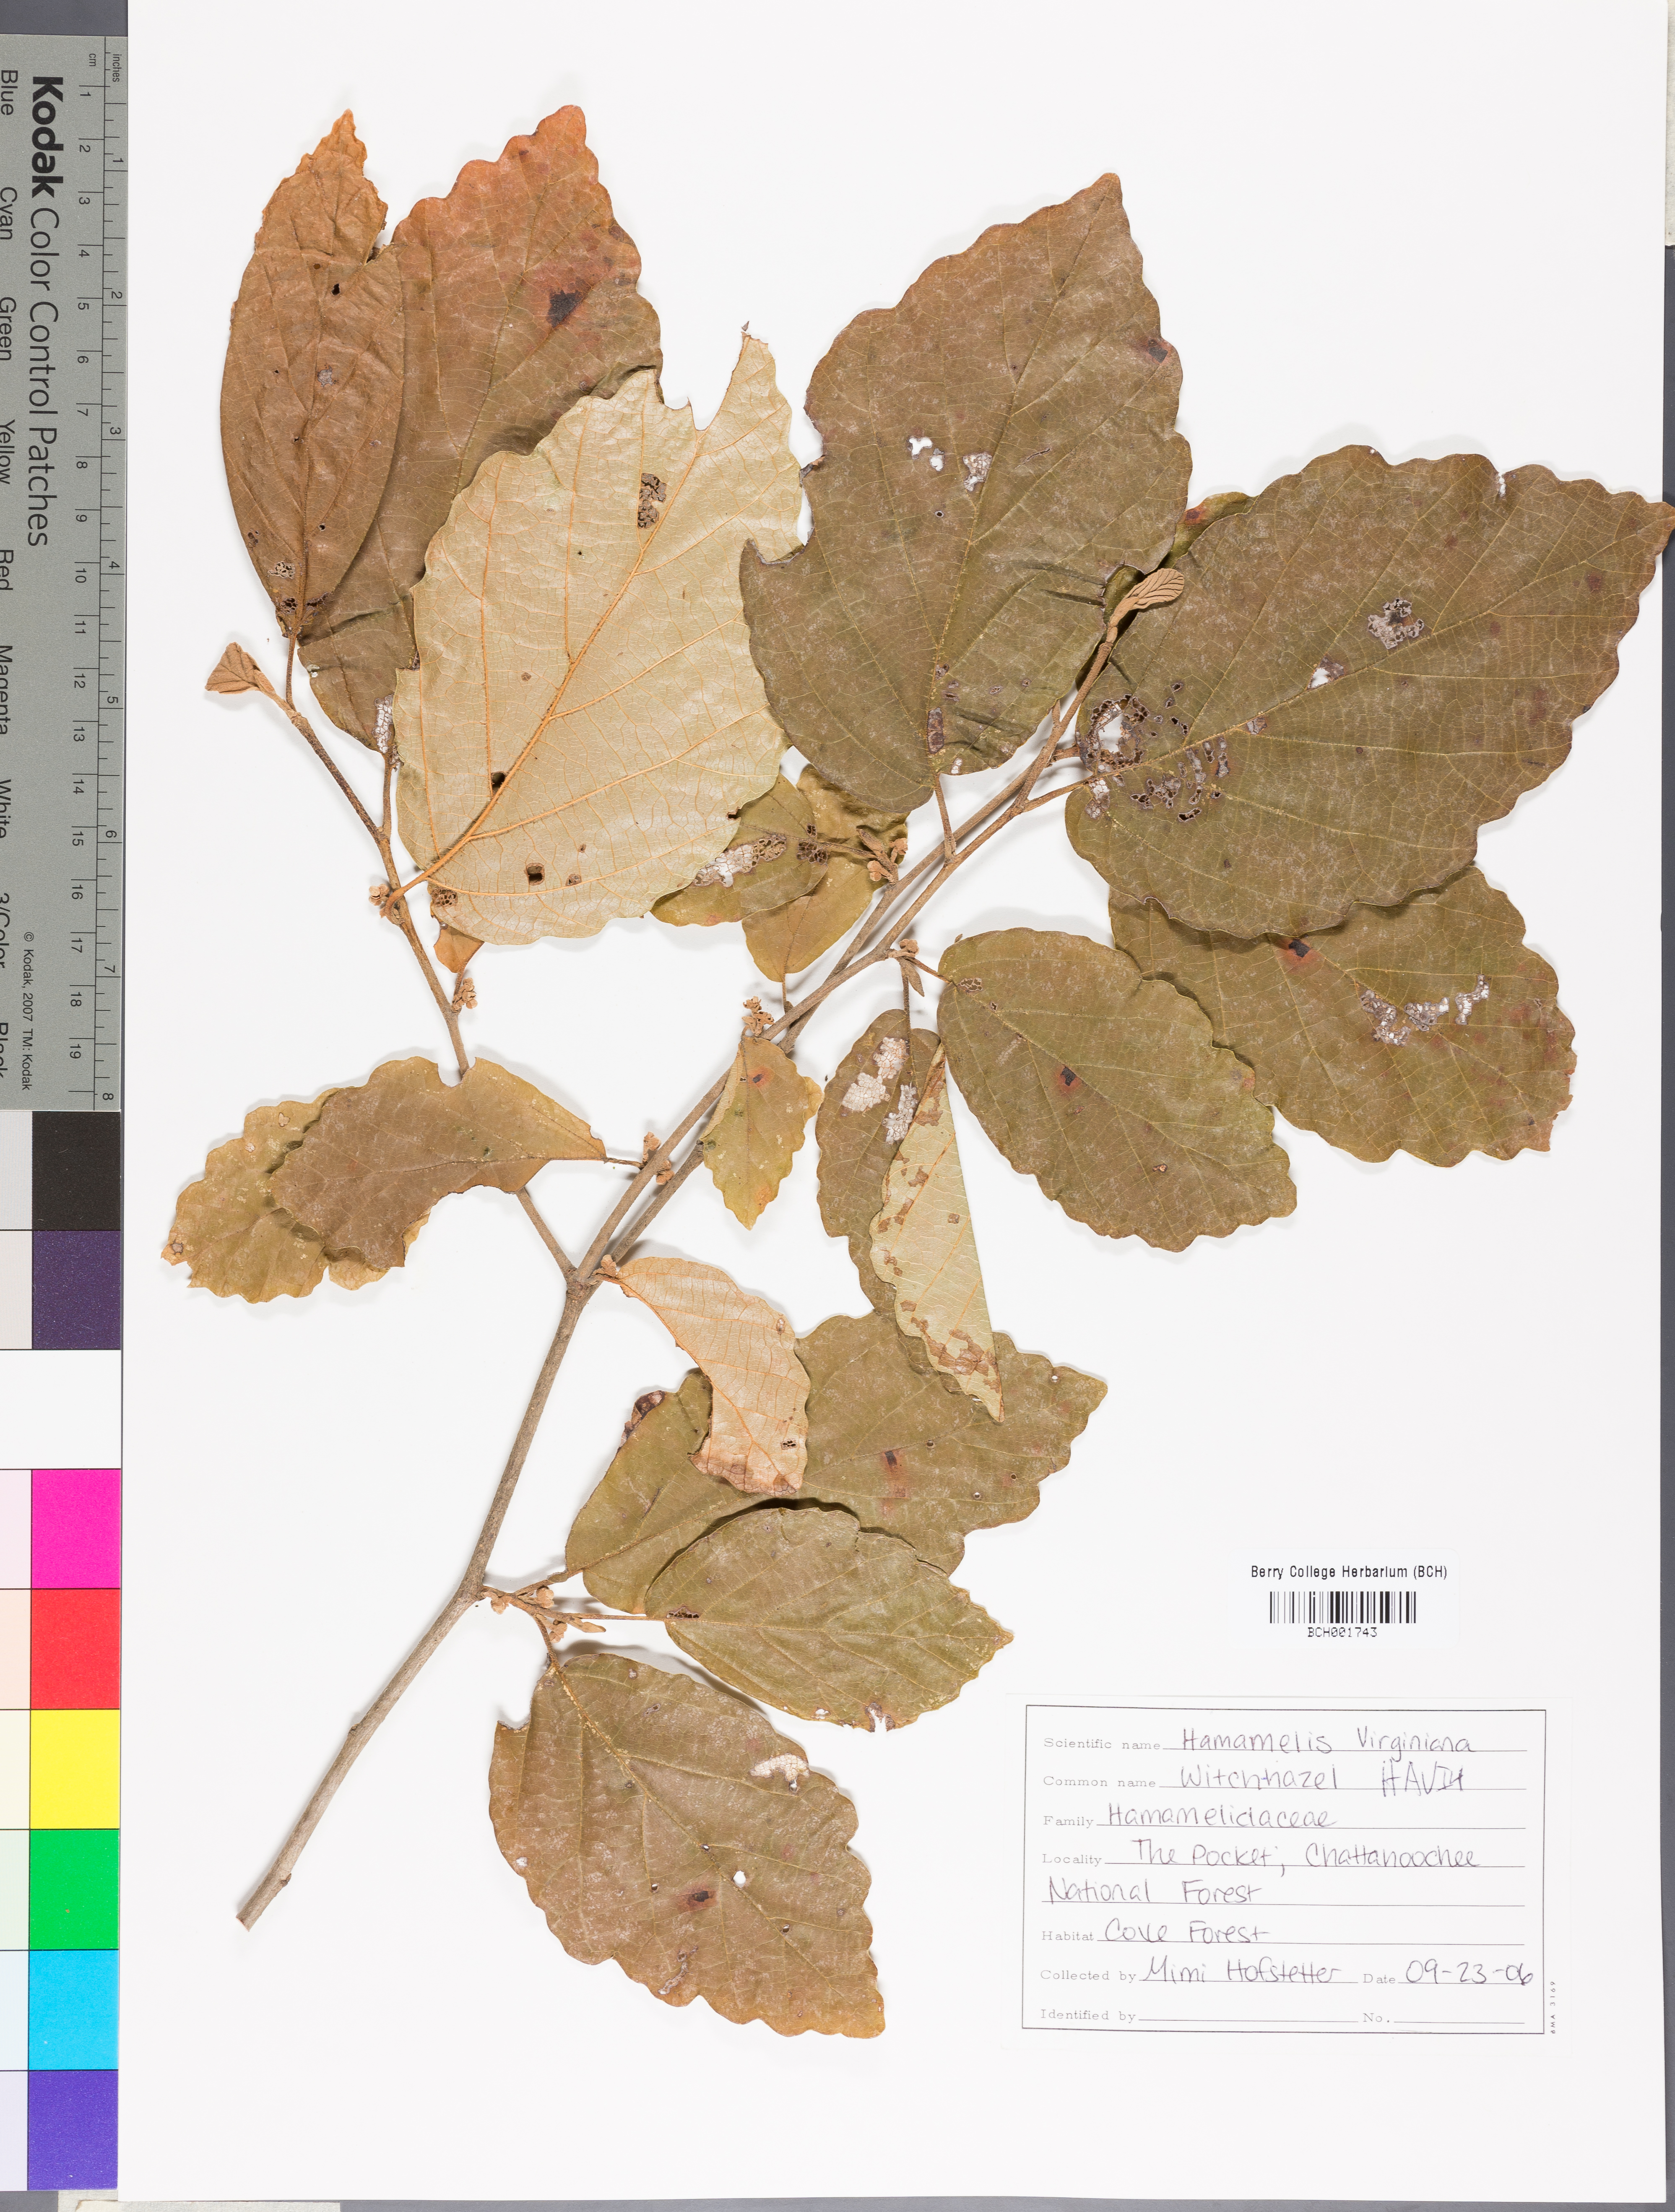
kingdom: Plantae
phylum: Tracheophyta
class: Magnoliopsida
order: Saxifragales
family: Hamamelidaceae
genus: Hamamelis
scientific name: Hamamelis virginiana
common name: Witch-hazel
